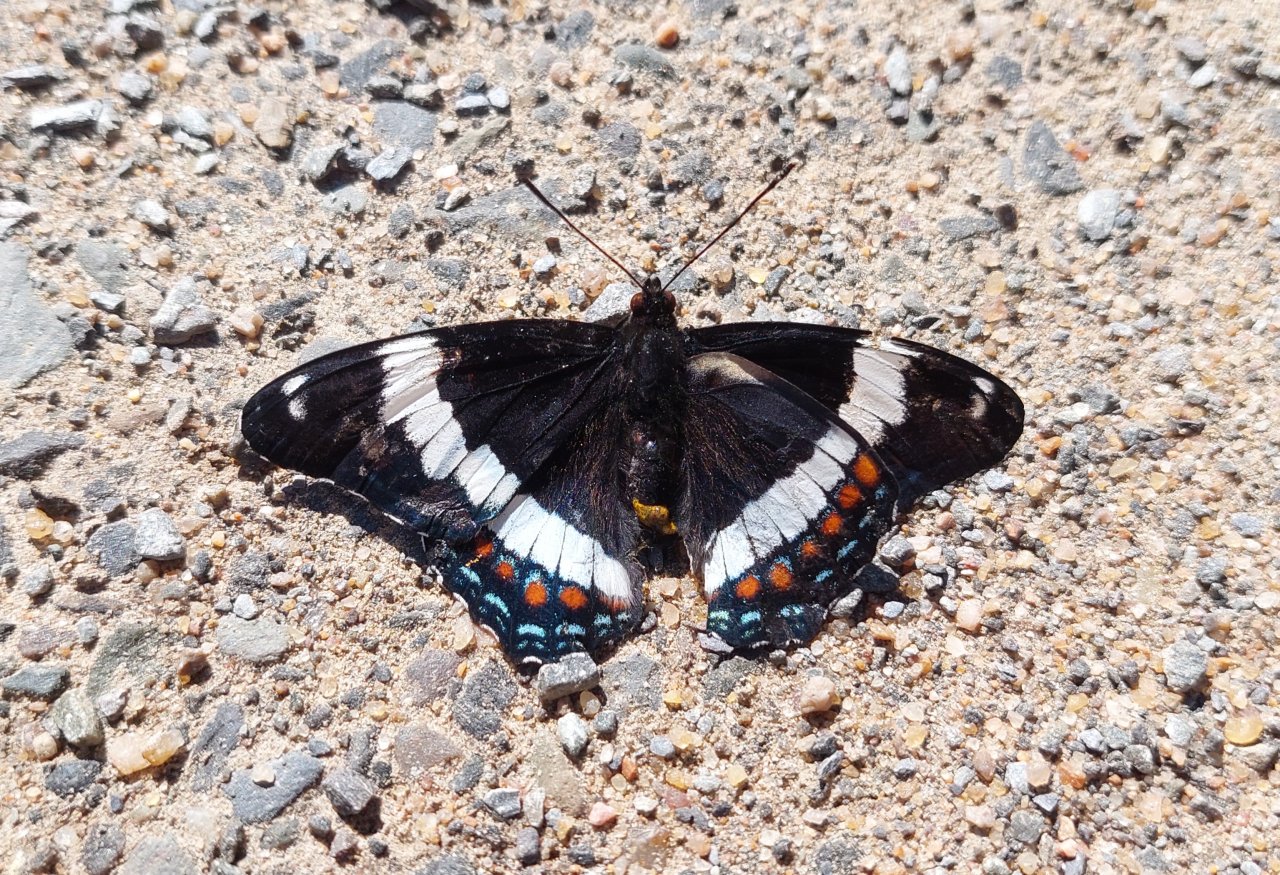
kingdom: Animalia
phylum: Arthropoda
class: Insecta
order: Lepidoptera
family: Nymphalidae
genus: Limenitis
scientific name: Limenitis arthemis
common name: Red-spotted Admiral
